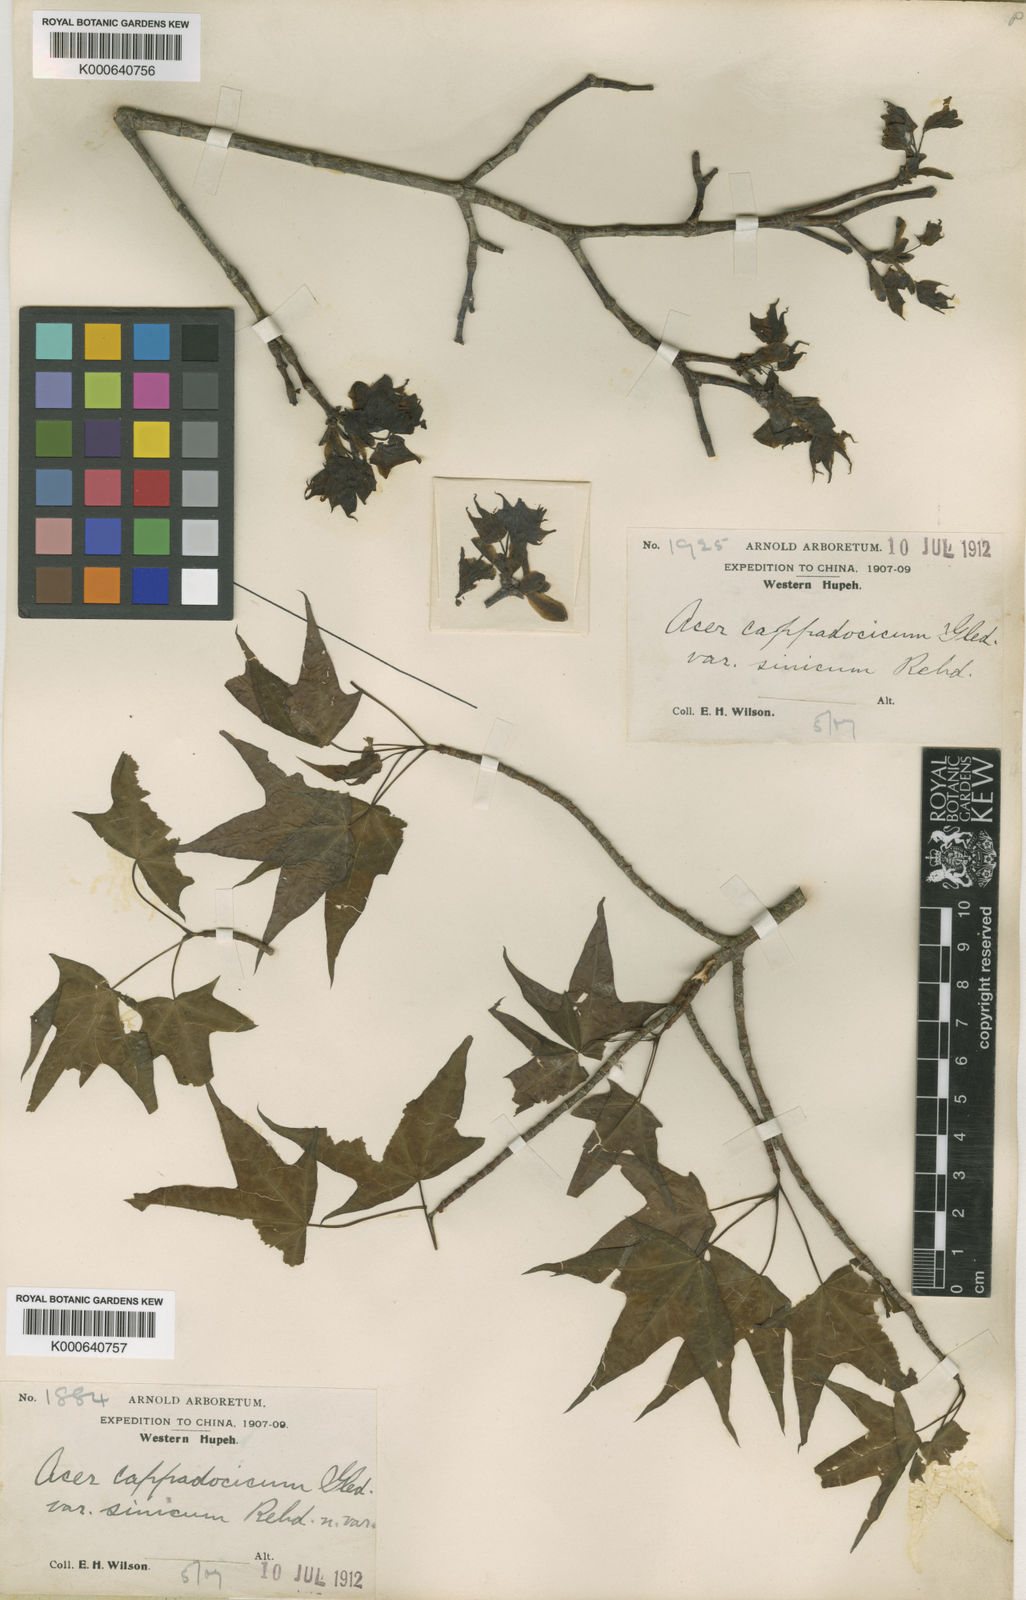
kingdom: Plantae
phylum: Tracheophyta
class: Magnoliopsida
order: Sapindales
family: Sapindaceae
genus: Acer
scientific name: Acer
